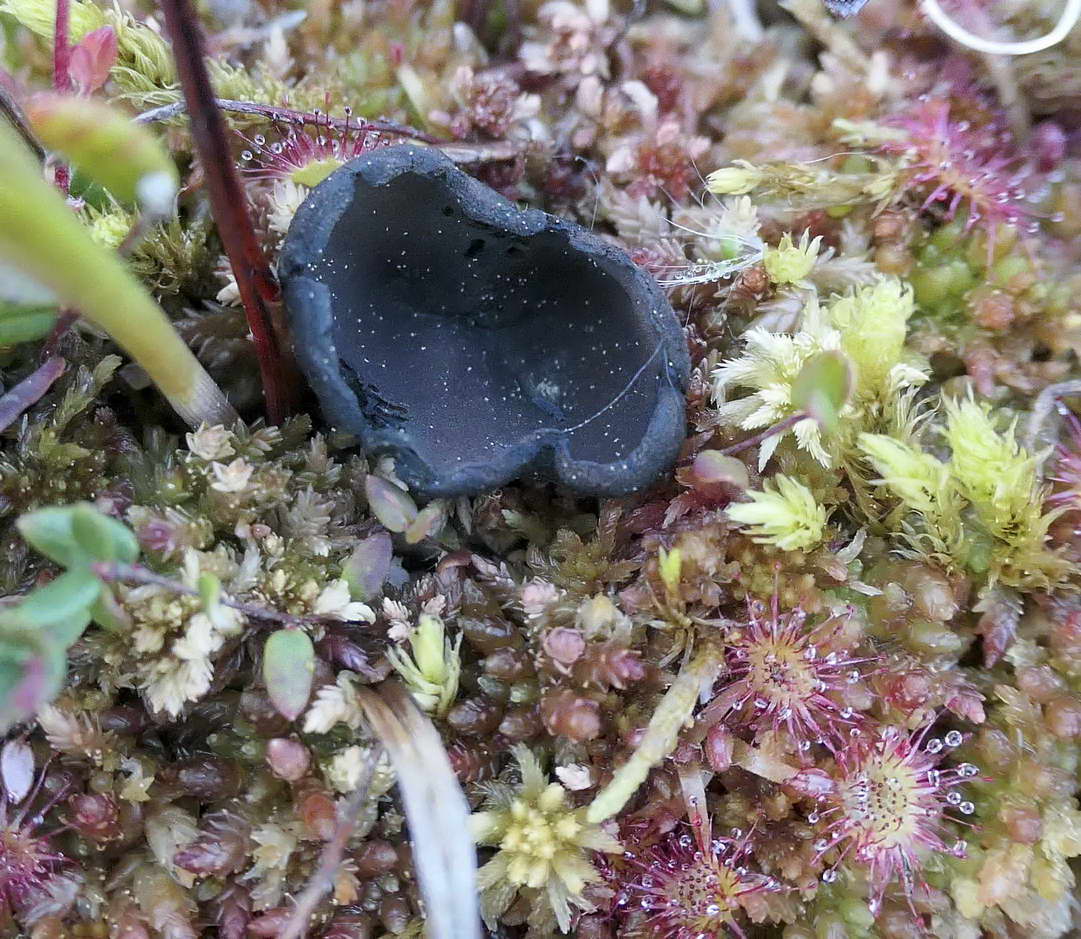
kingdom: Fungi
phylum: Ascomycota
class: Pezizomycetes
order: Pezizales
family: Sarcosomataceae
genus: Pseudoplectania
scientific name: Pseudoplectania episphagnum
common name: tørvemos-sortbæger
